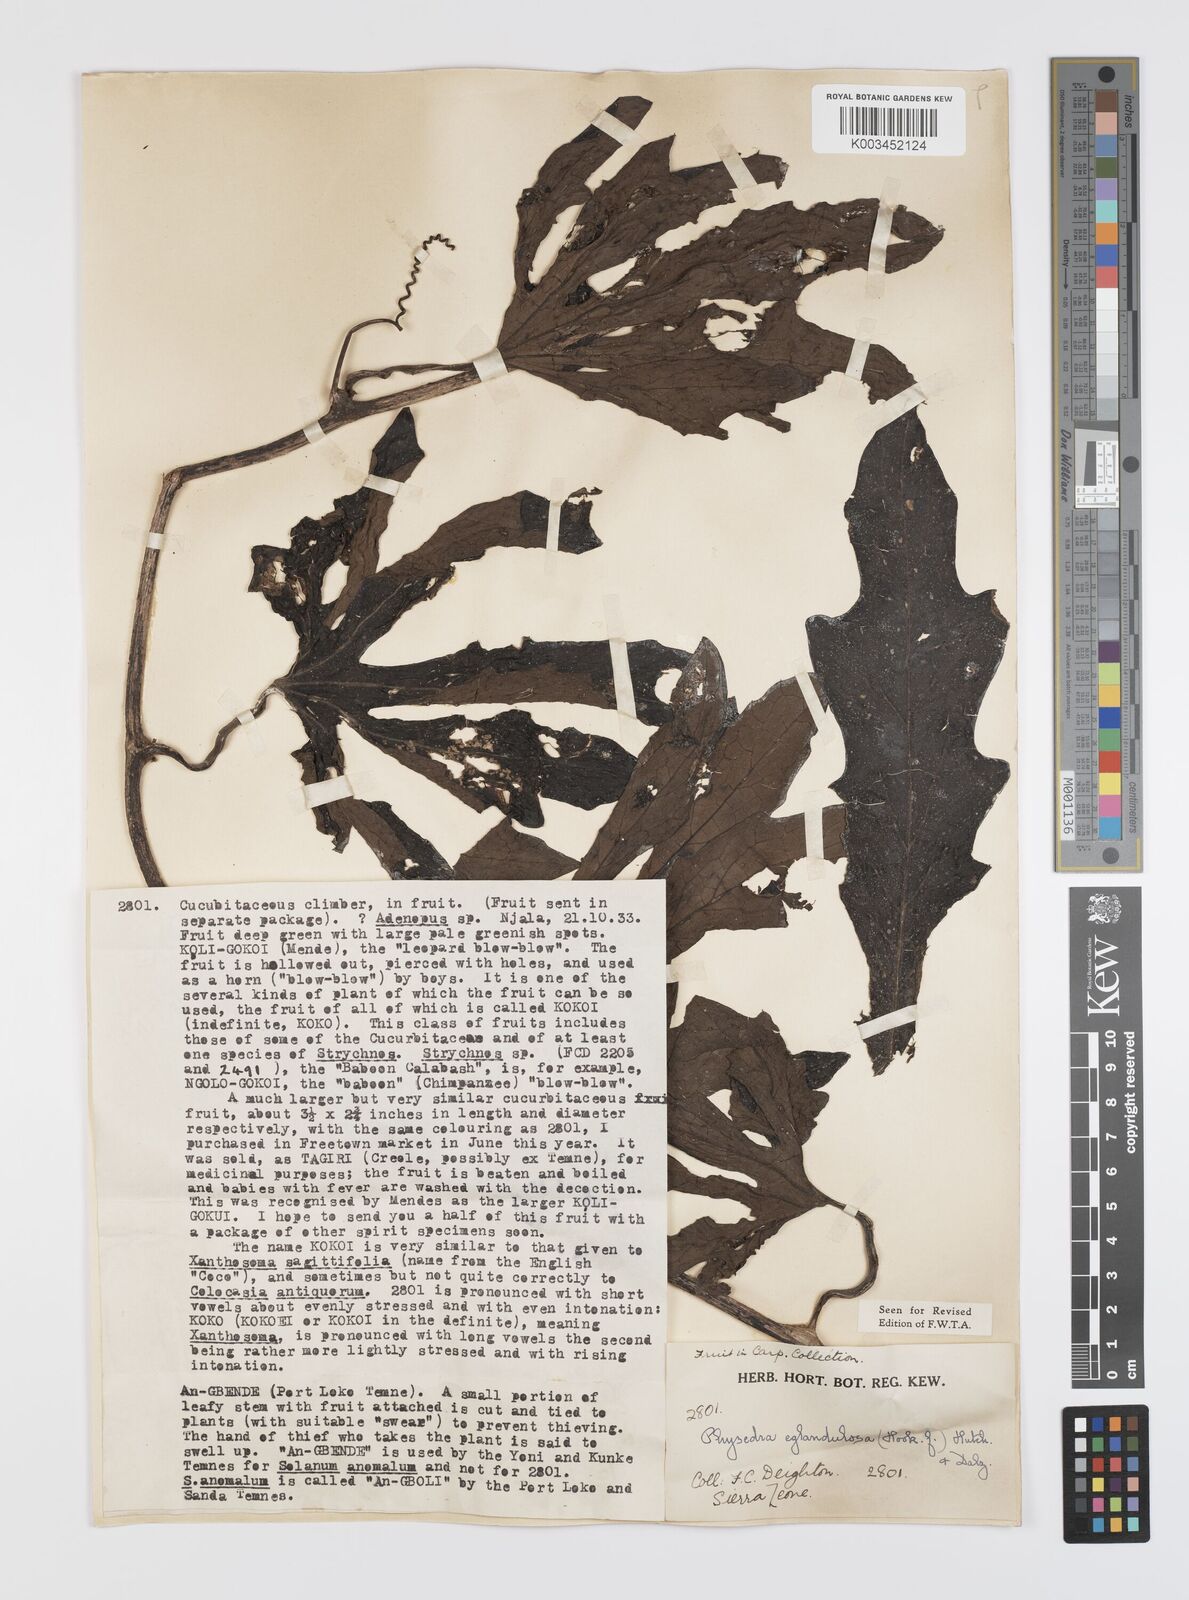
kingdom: Plantae
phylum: Tracheophyta
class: Magnoliopsida
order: Cucurbitales
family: Cucurbitaceae
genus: Ruthalicia
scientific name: Ruthalicia eglandulosa
